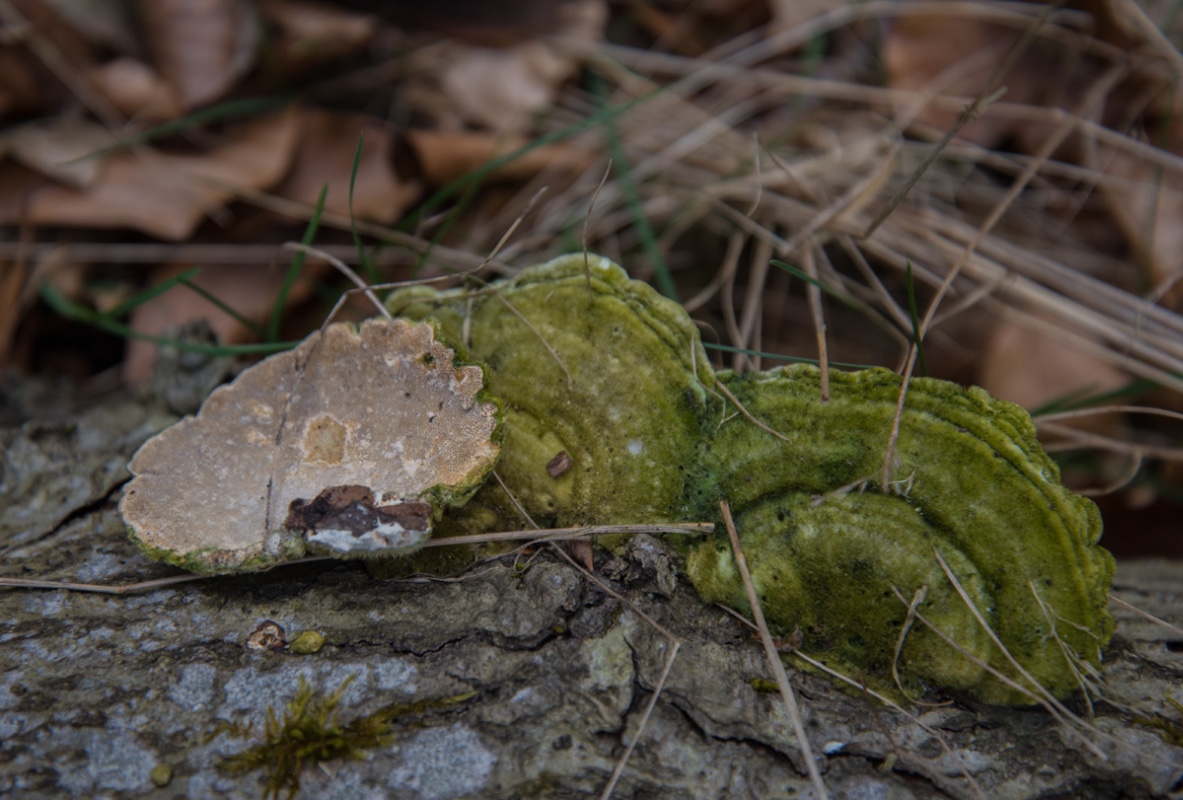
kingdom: Fungi
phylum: Basidiomycota
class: Agaricomycetes
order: Polyporales
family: Polyporaceae
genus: Trametes
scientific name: Trametes hirsuta
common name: håret læderporesvamp
